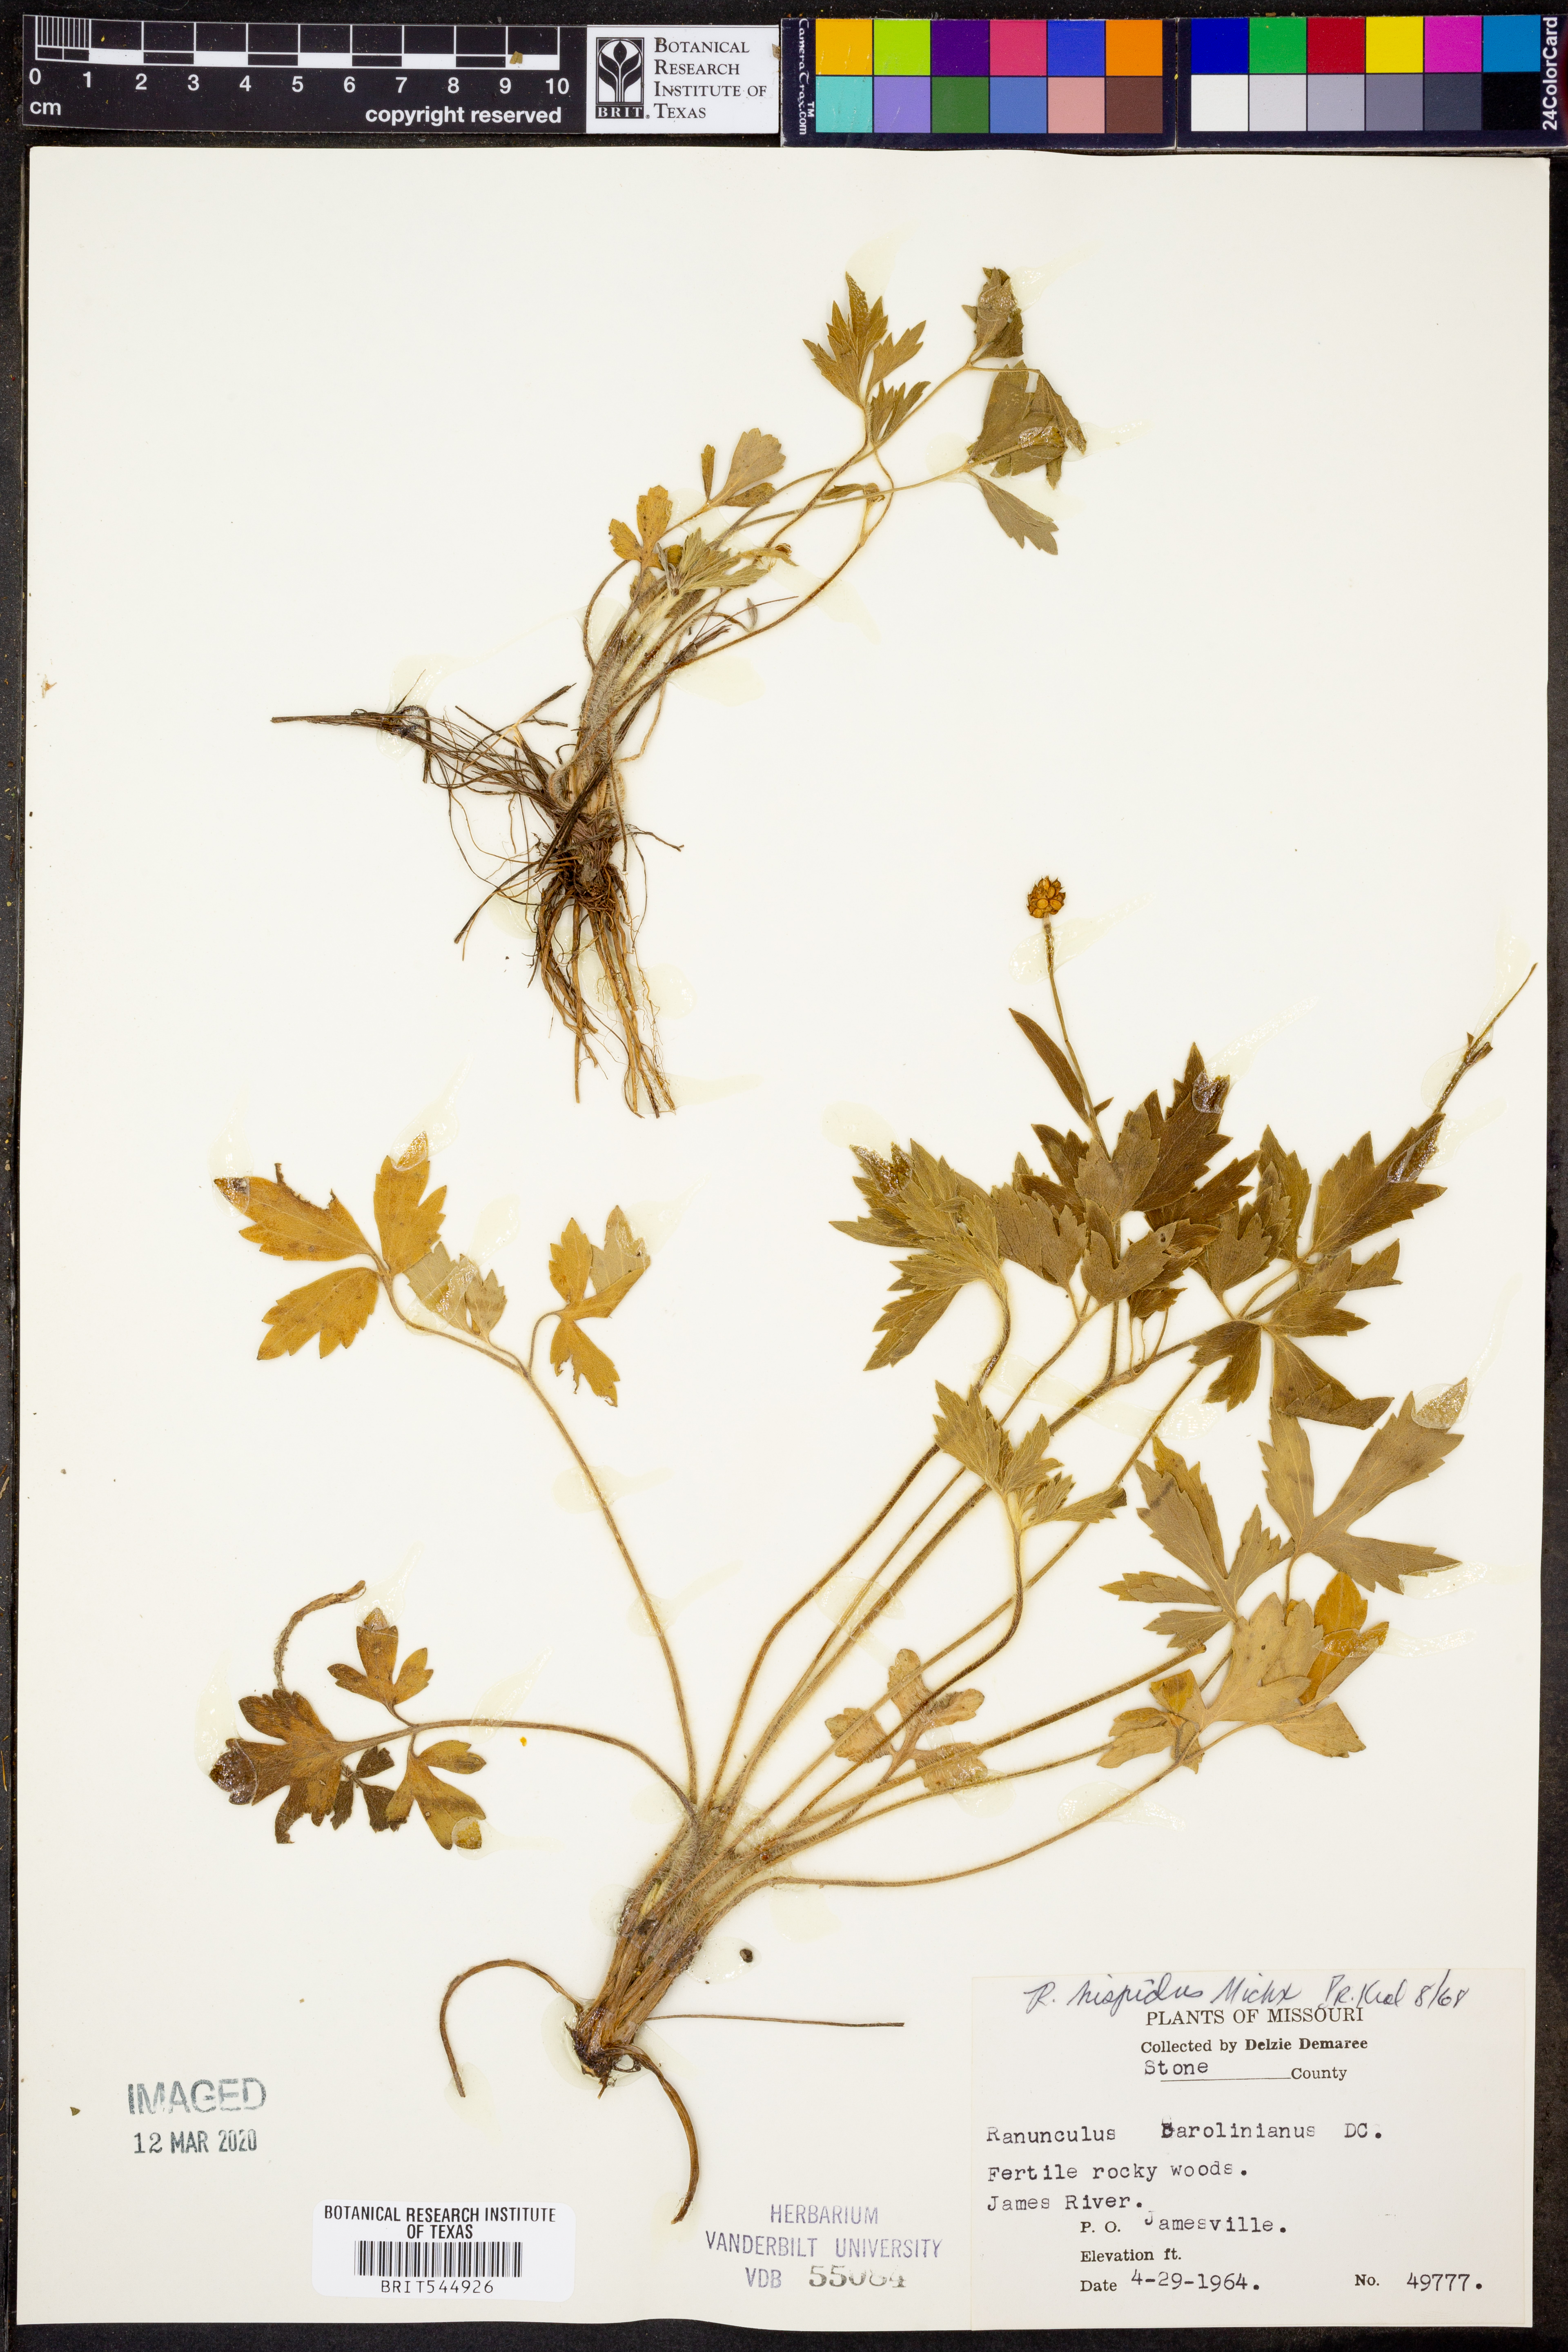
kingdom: Plantae
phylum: Tracheophyta
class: Magnoliopsida
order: Ranunculales
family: Ranunculaceae
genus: Ranunculus
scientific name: Ranunculus hispidus
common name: Bristly buttercup
